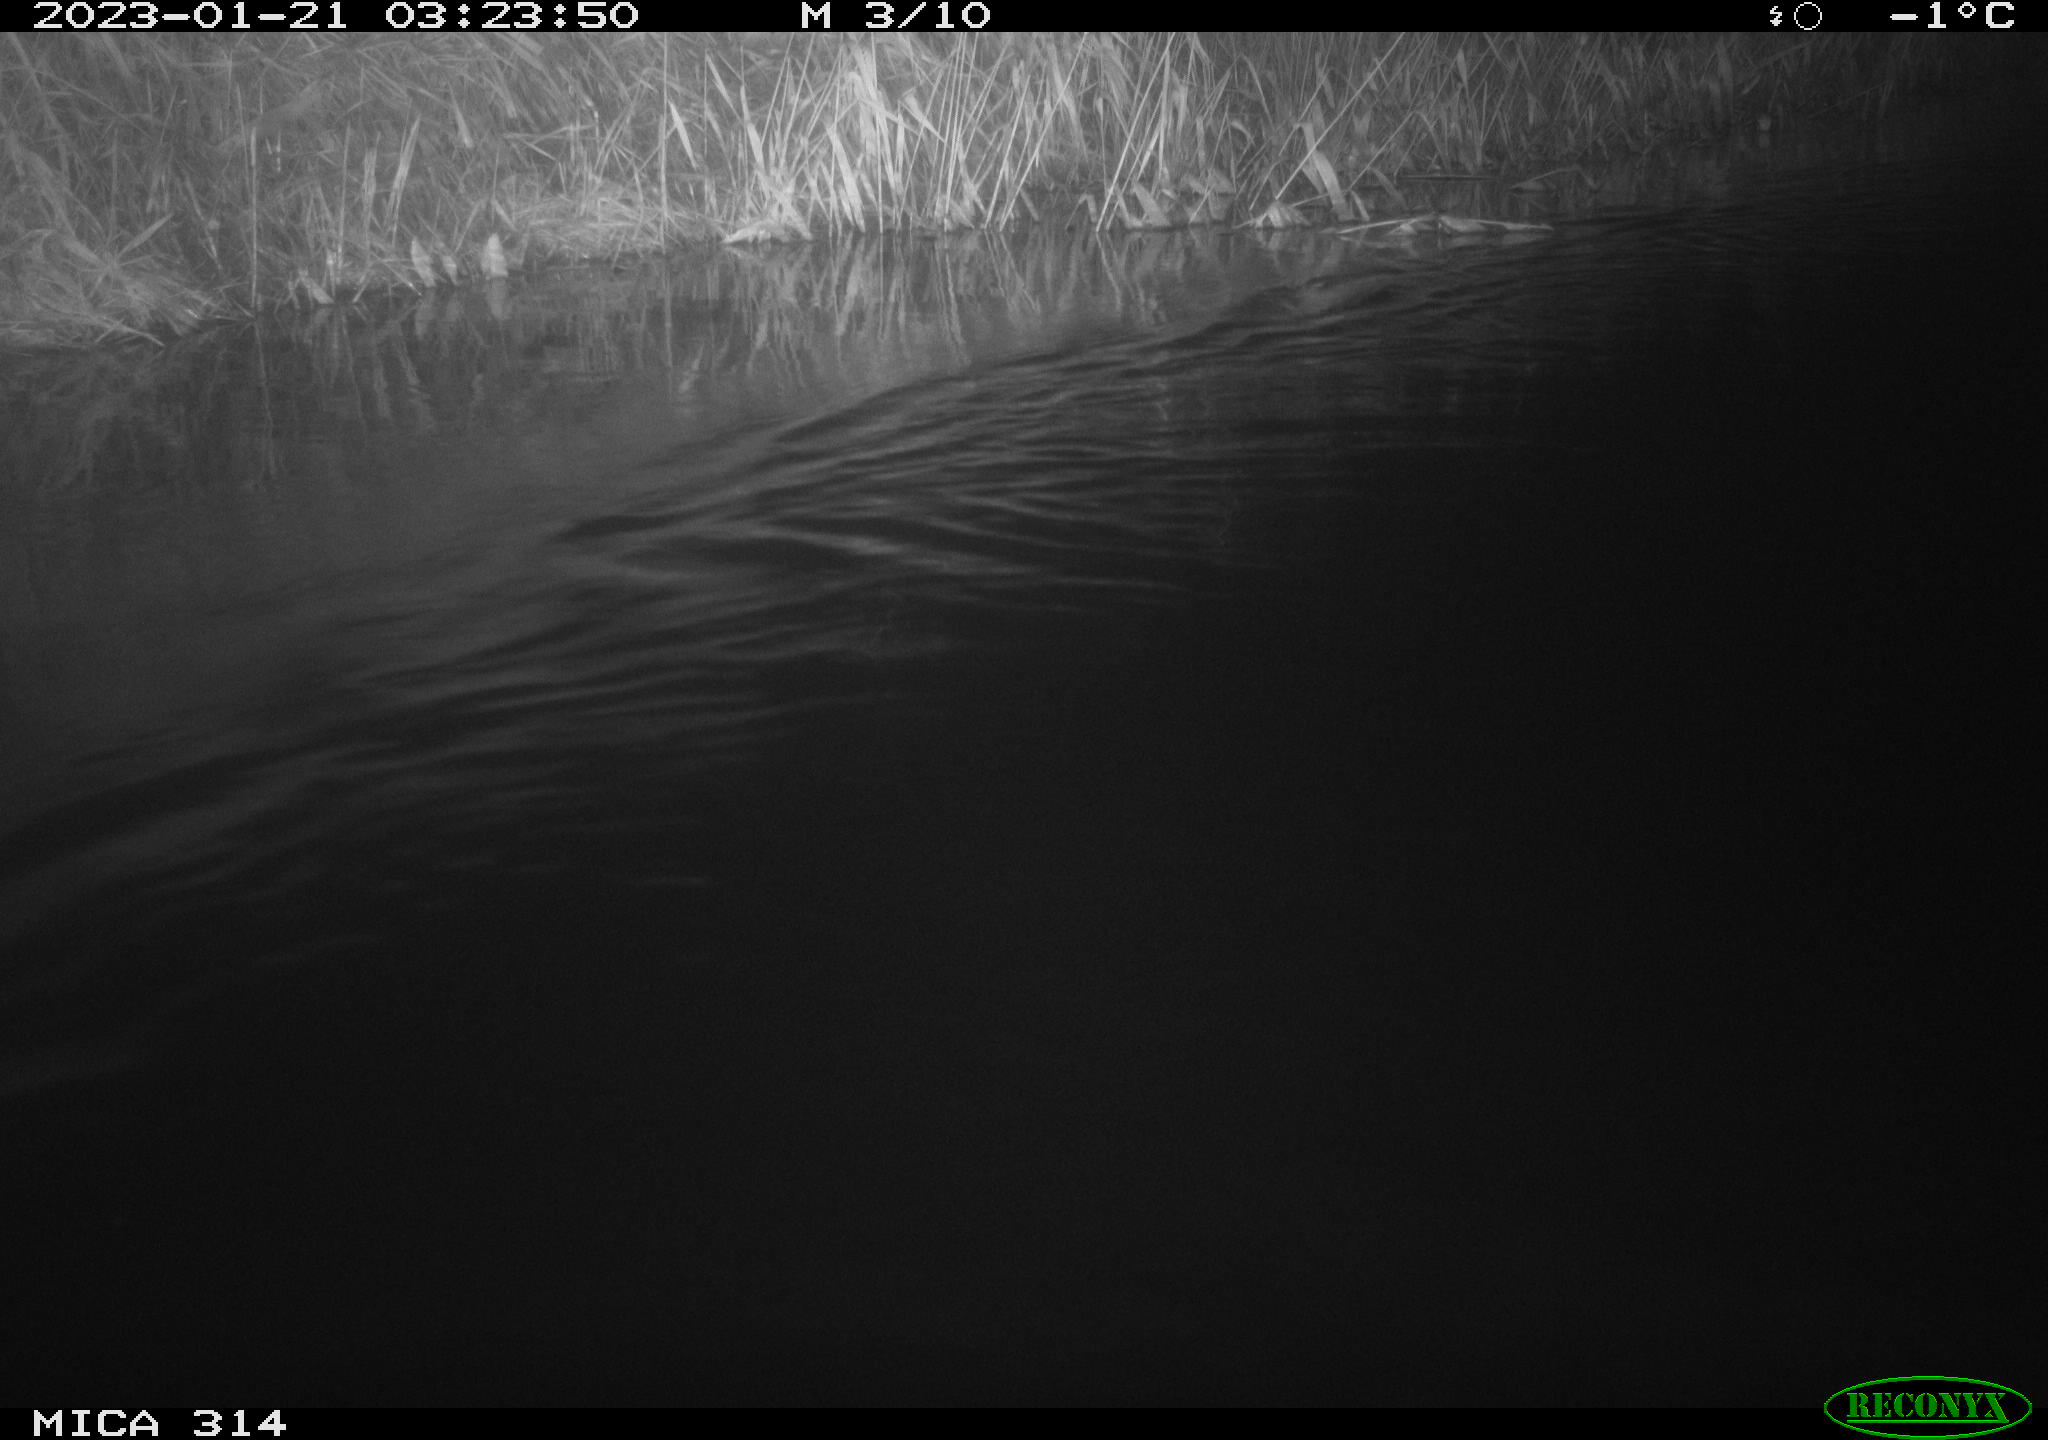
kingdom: Animalia
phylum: Chordata
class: Mammalia
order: Rodentia
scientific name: Rodentia
